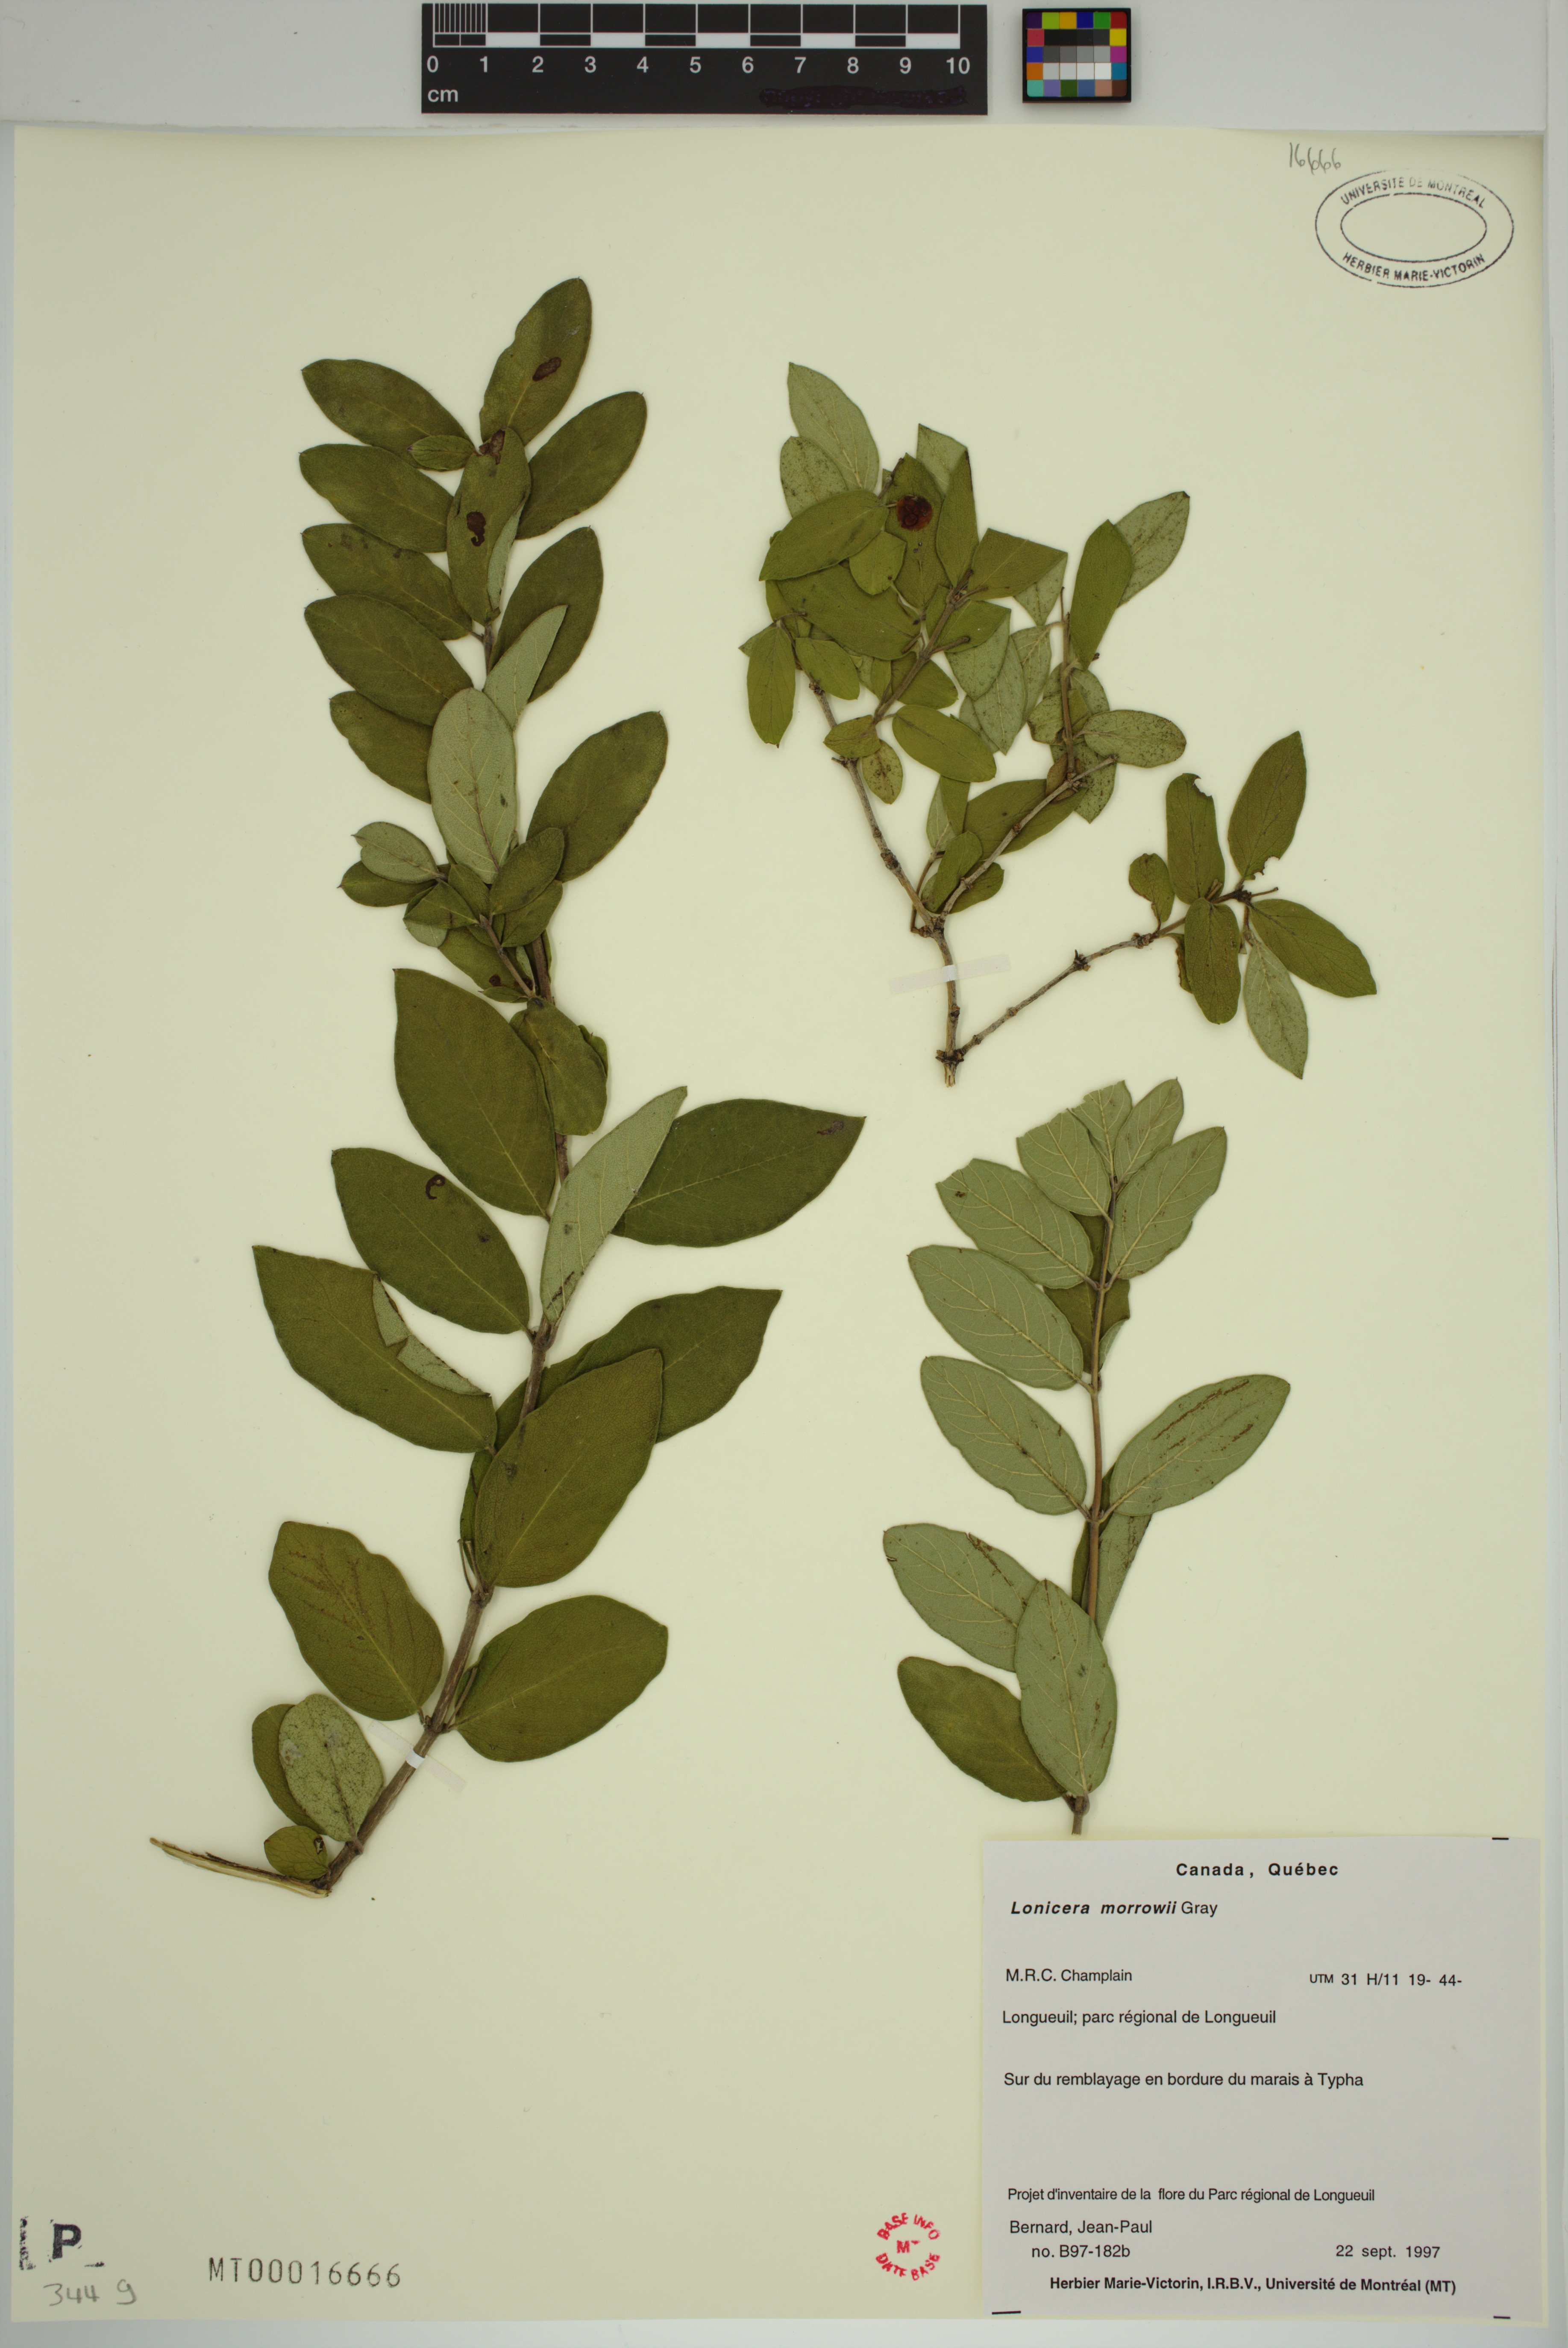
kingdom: Plantae
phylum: Tracheophyta
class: Magnoliopsida
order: Dipsacales
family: Caprifoliaceae
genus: Lonicera
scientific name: Lonicera tatarica
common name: Tatarian honeysuckle
